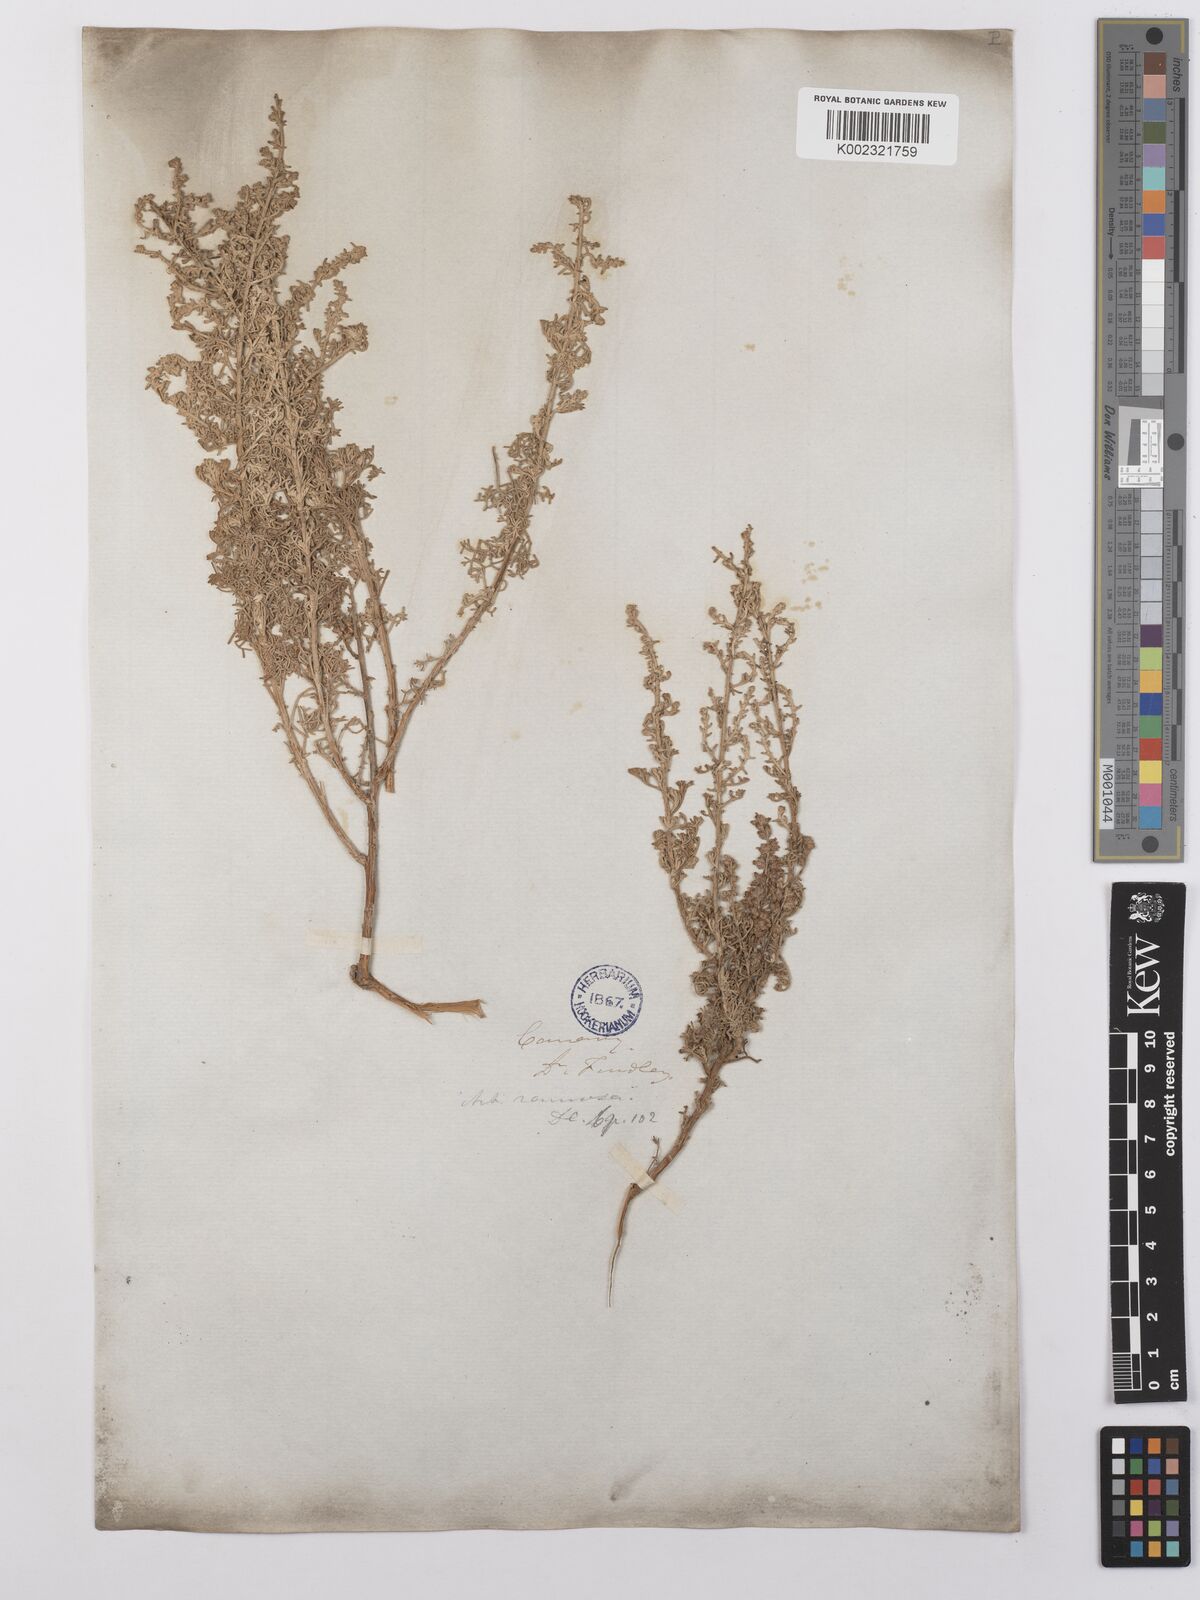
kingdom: Plantae
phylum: Tracheophyta
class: Magnoliopsida
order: Asterales
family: Asteraceae
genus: Artemisia
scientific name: Artemisia herba-alba
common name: White wormwood
